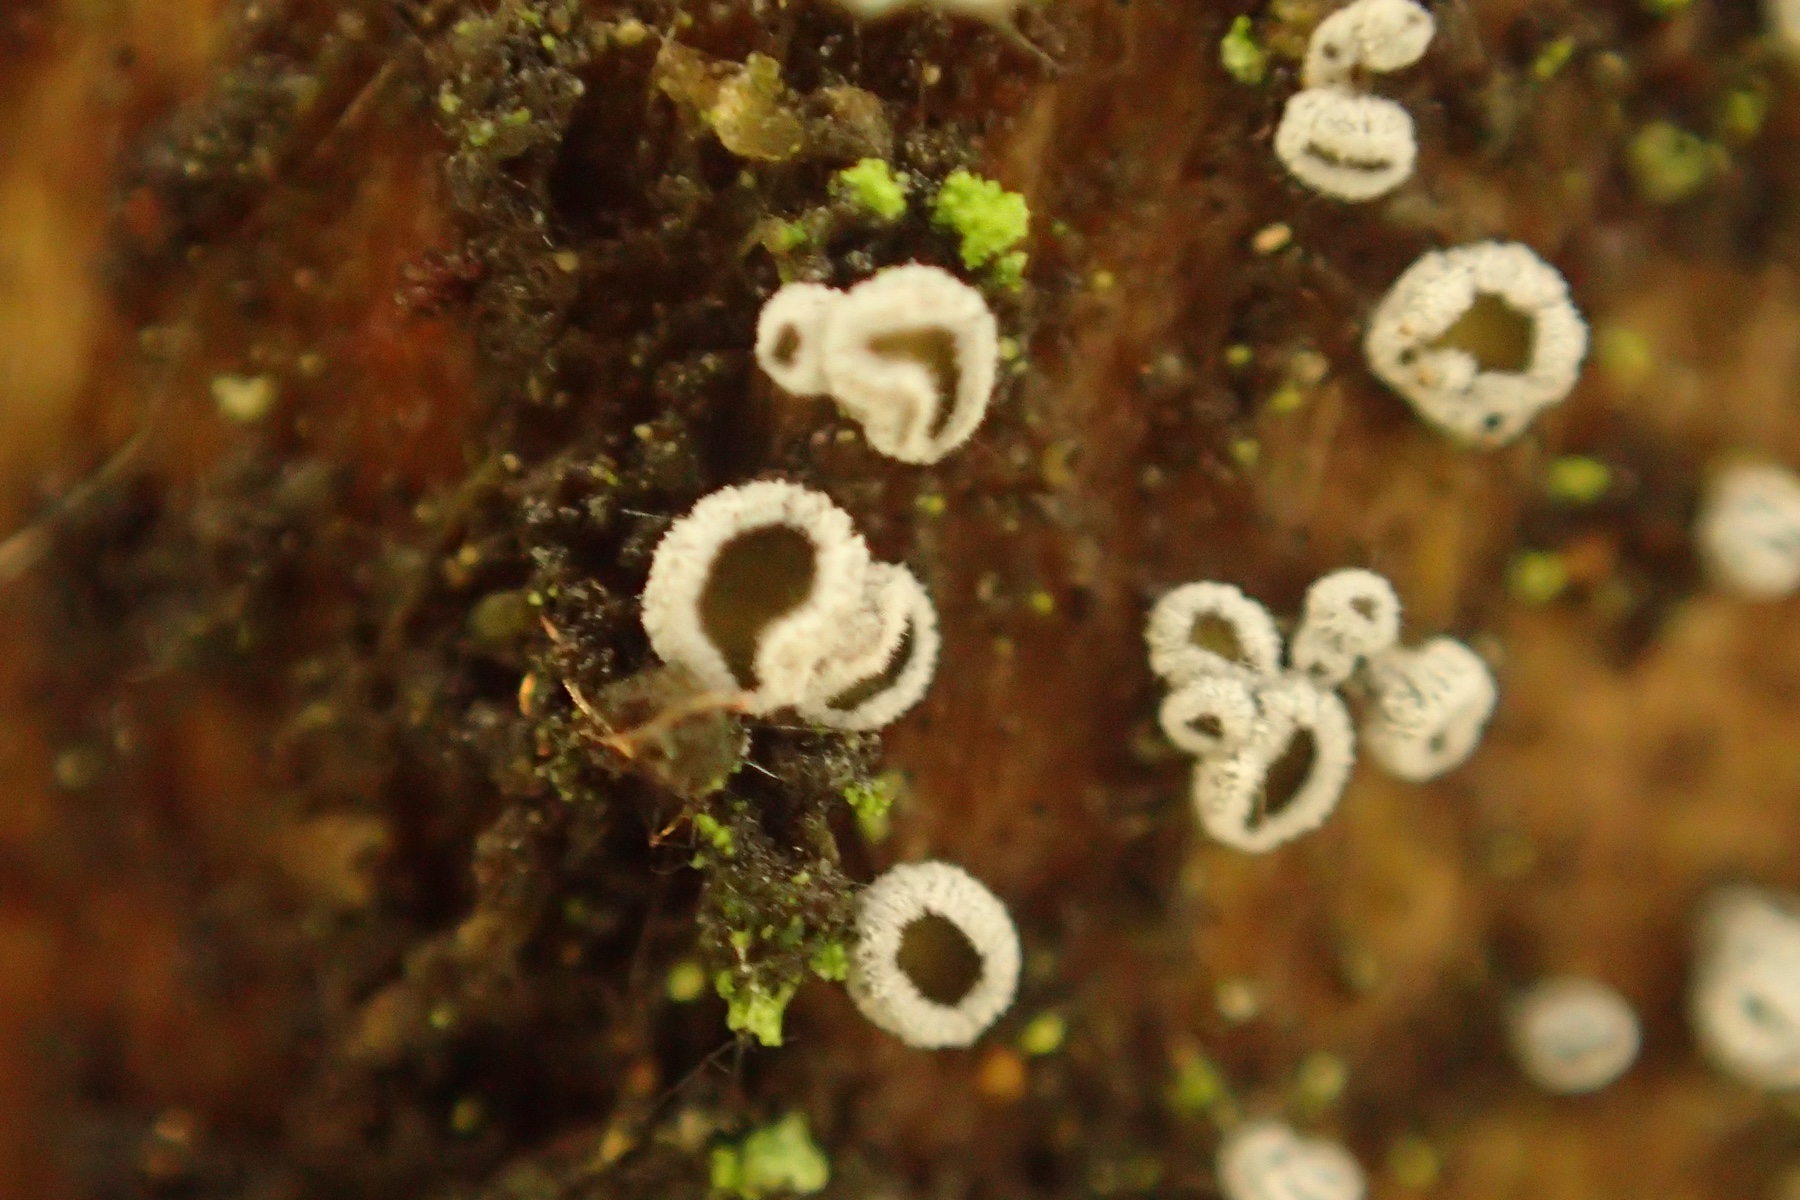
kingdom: Fungi
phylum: Ascomycota
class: Leotiomycetes
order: Helotiales
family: Lachnaceae
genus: Proliferodiscus
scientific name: Proliferodiscus pulveraceus
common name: askegrå frynseskive
